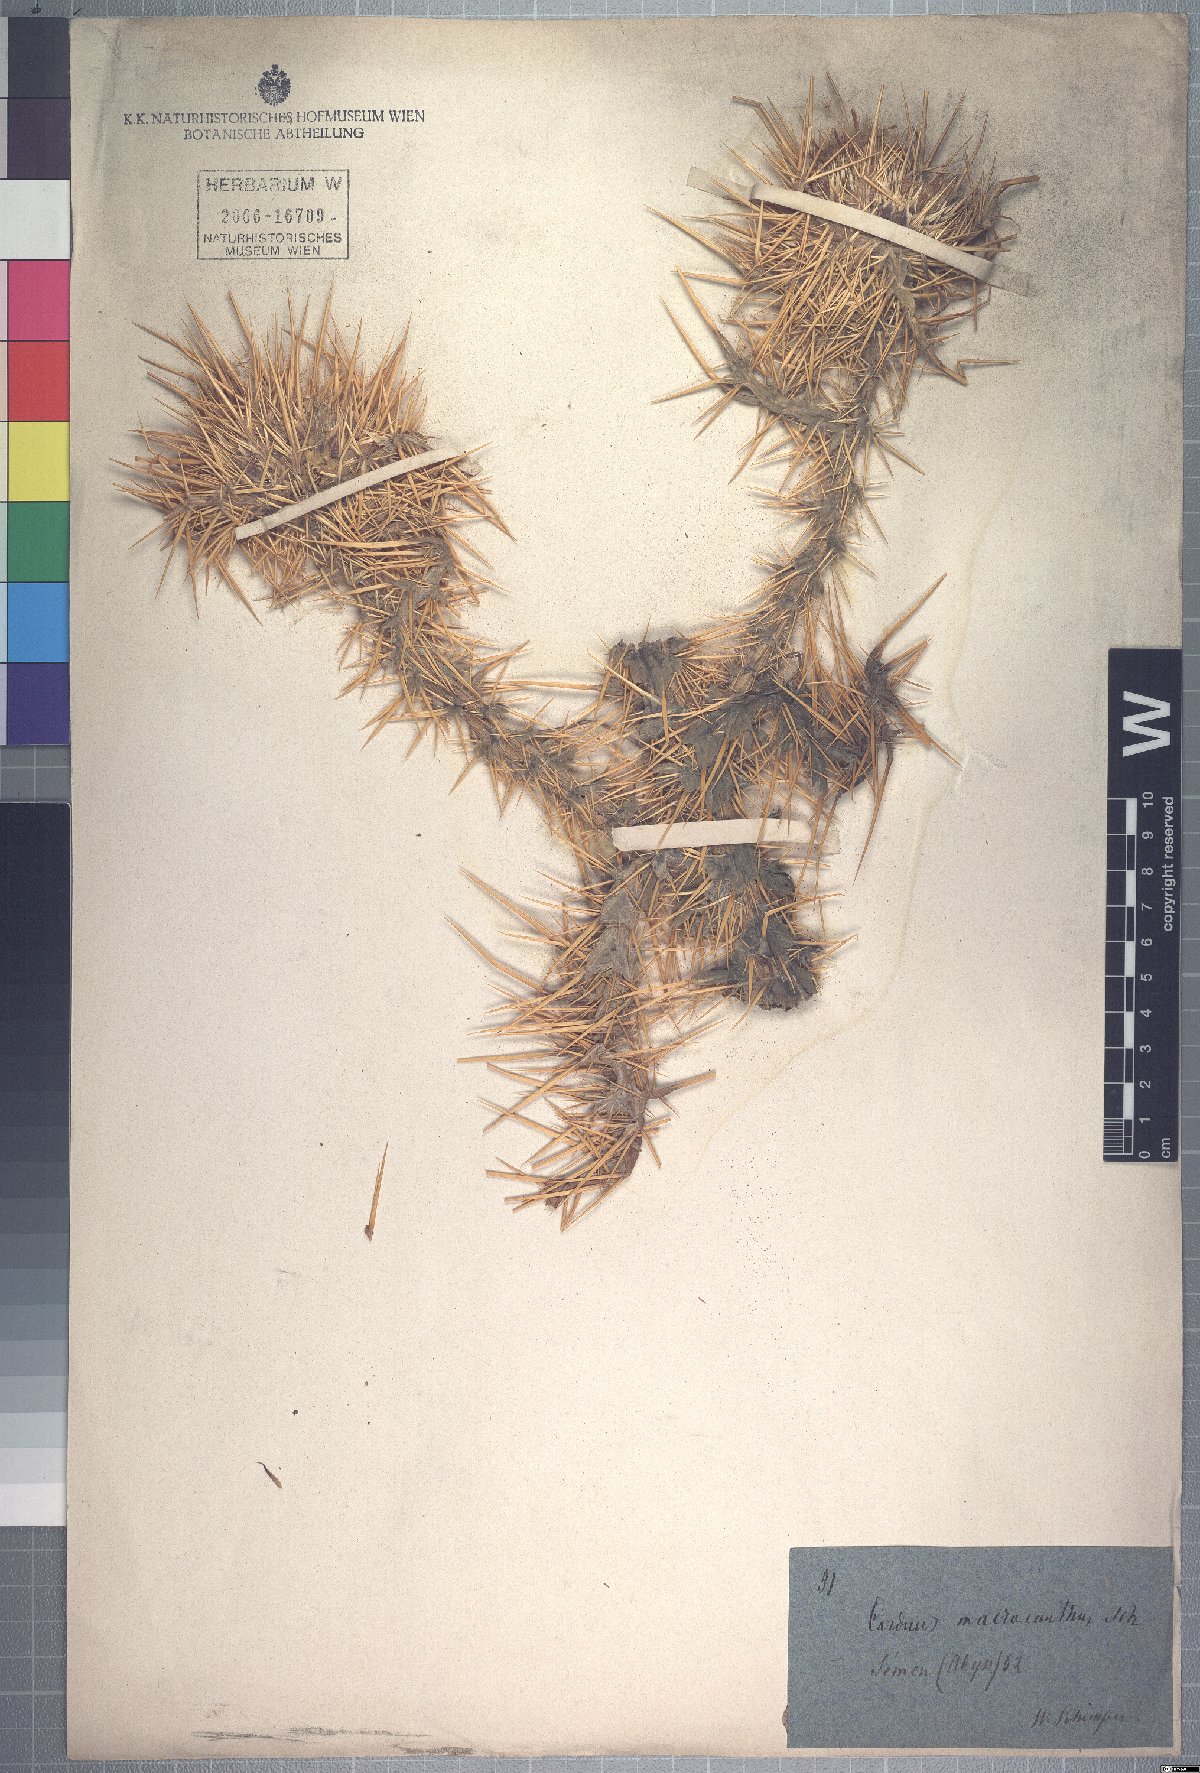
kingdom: Plantae
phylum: Tracheophyta
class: Magnoliopsida
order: Asterales
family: Asteraceae
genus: Carduus
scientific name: Carduus macracanthus
